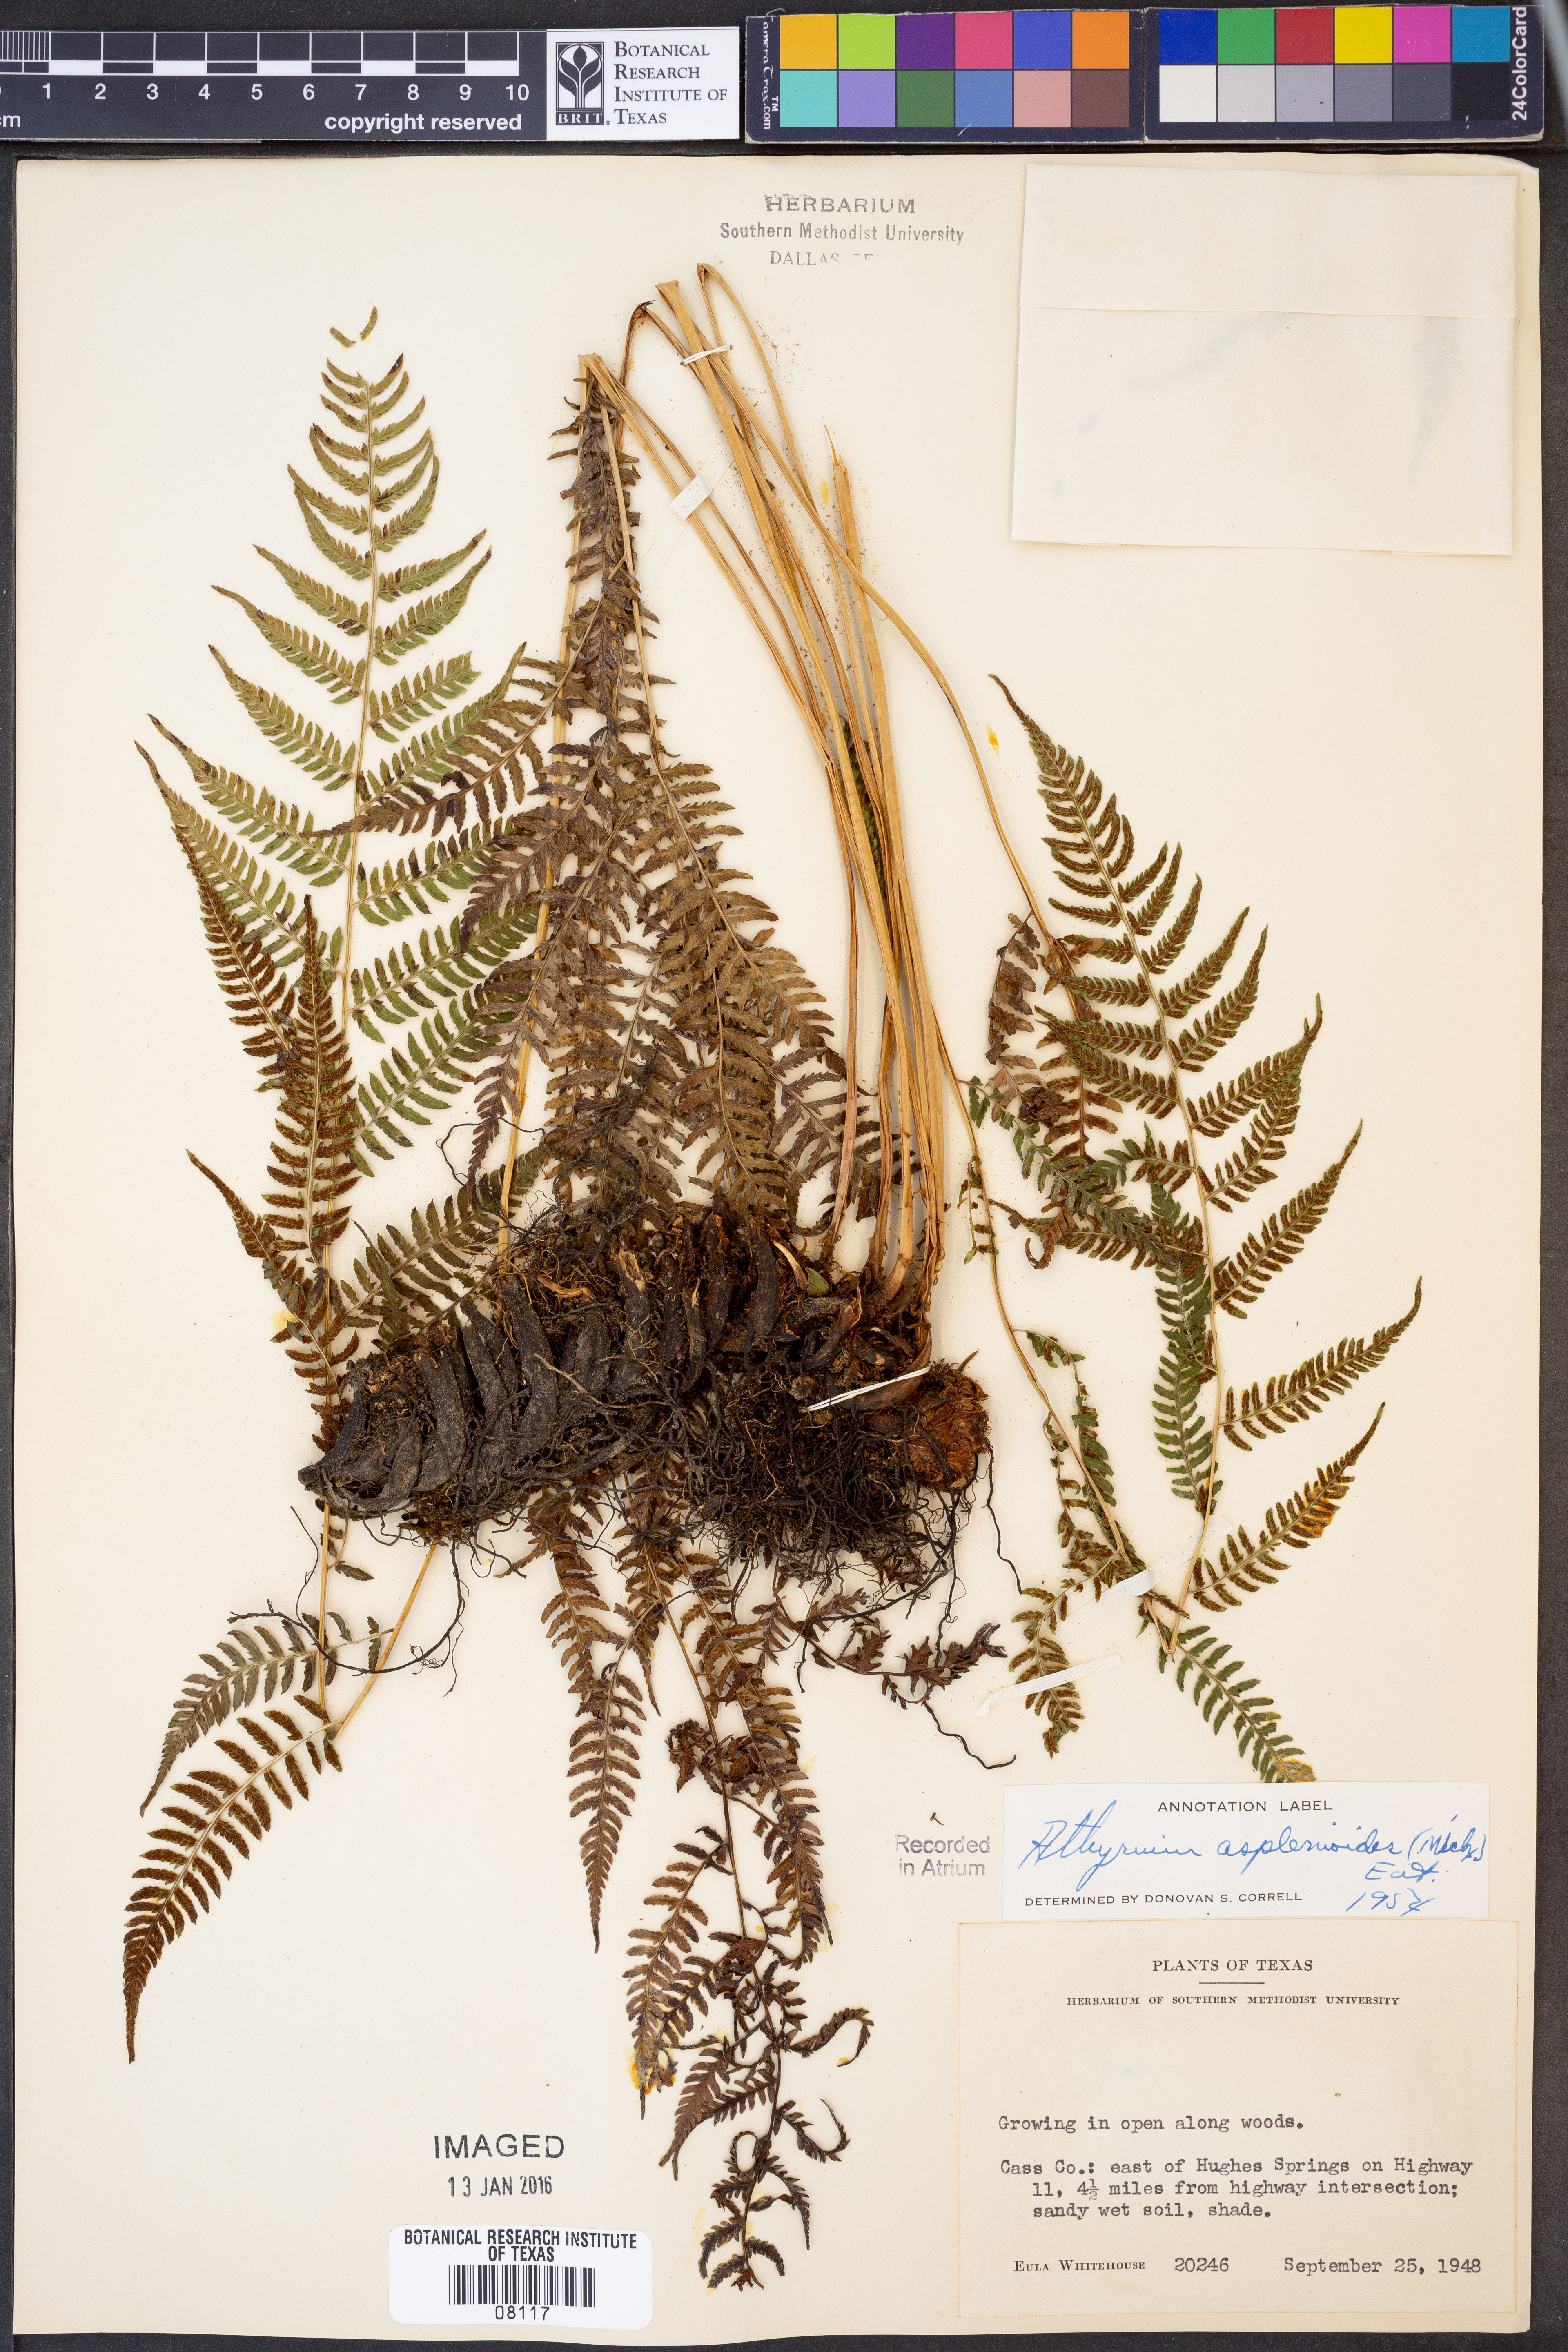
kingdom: Plantae
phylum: Tracheophyta
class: Polypodiopsida
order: Polypodiales
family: Athyriaceae
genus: Athyrium
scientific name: Athyrium asplenioides
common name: Southern lady fern
